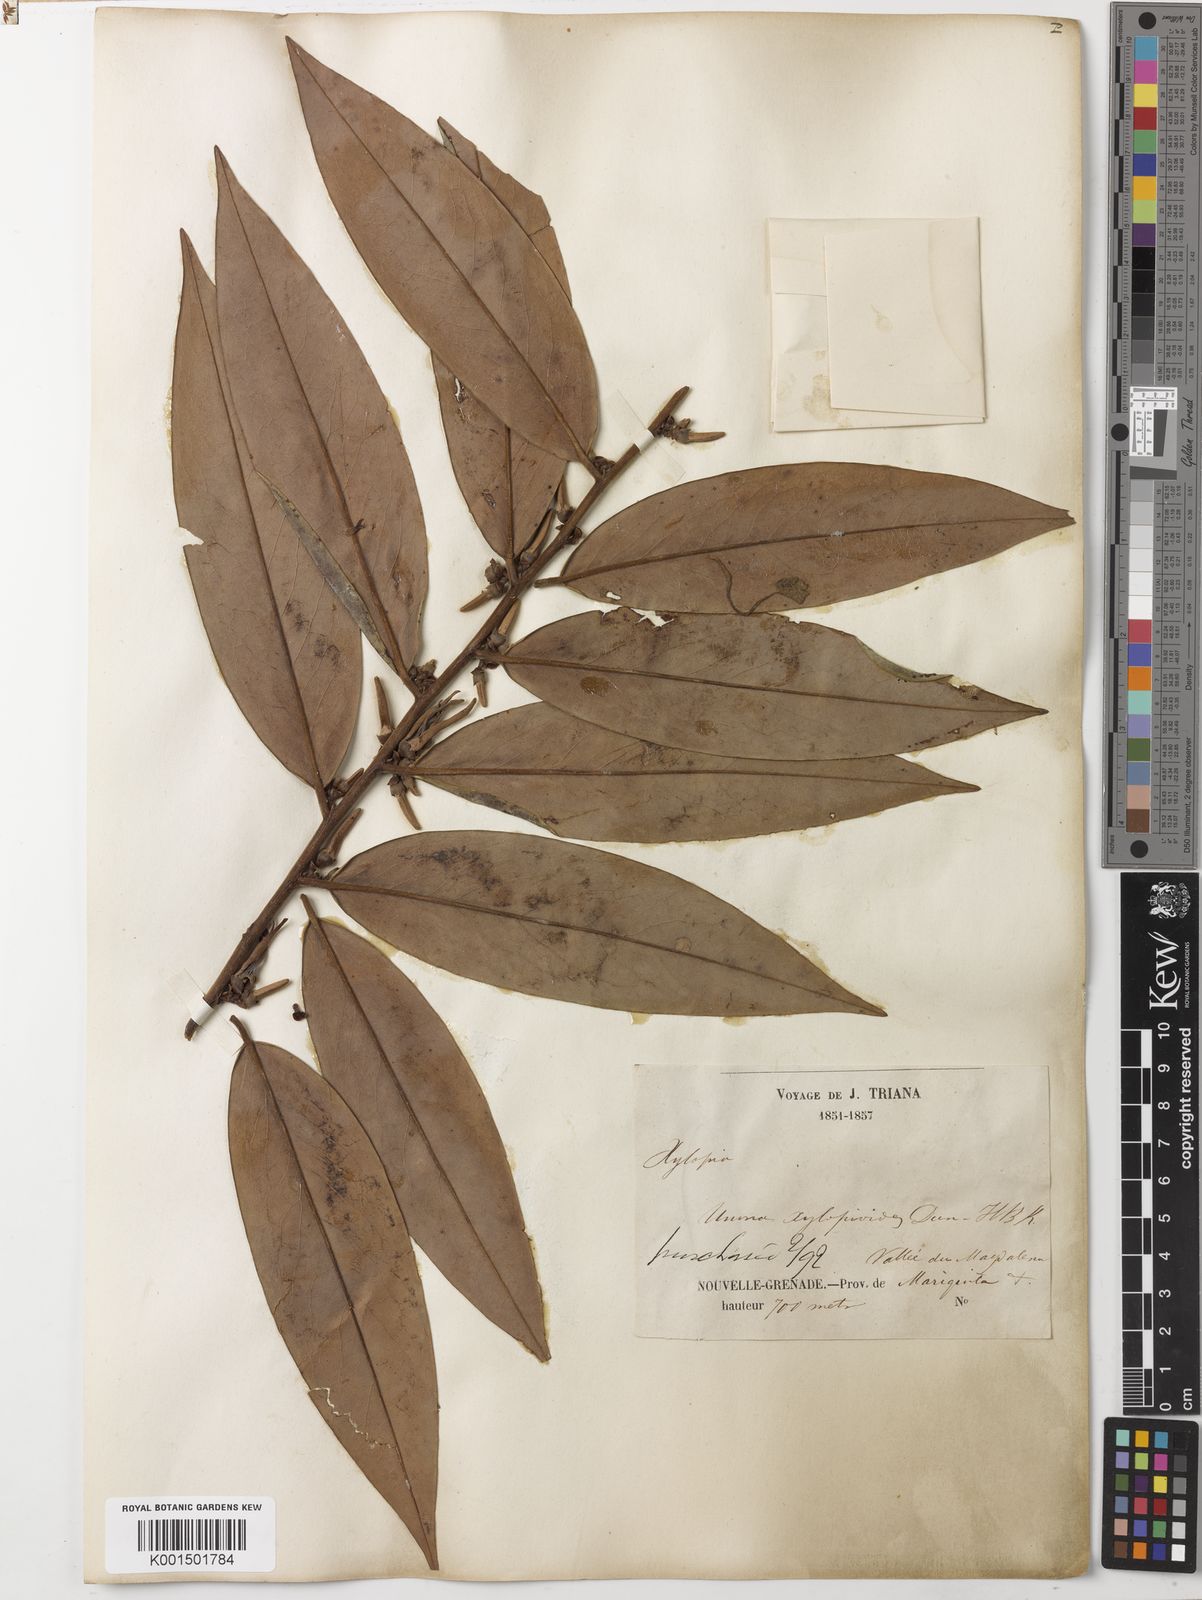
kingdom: Plantae
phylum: Tracheophyta
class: Magnoliopsida
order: Magnoliales
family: Annonaceae
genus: Xylopia
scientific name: Xylopia aromatica
